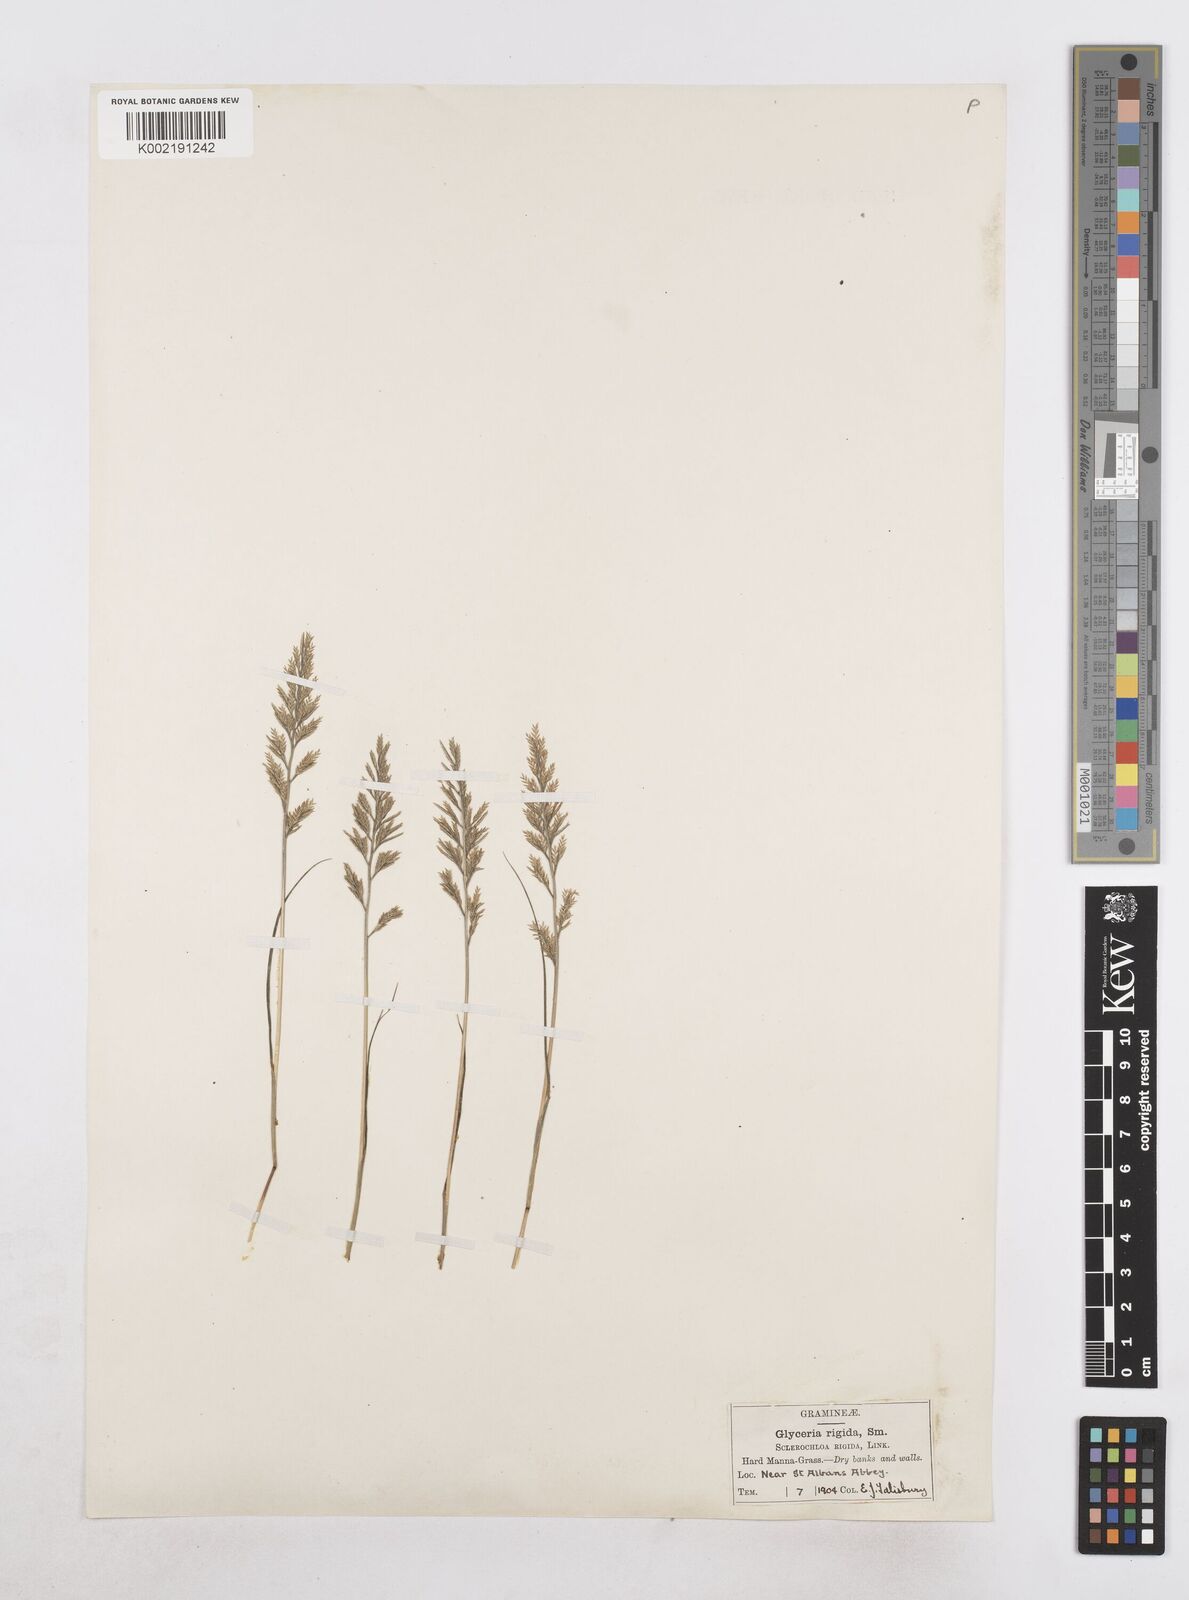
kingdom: Plantae
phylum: Tracheophyta
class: Liliopsida
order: Poales
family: Poaceae
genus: Catapodium
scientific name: Catapodium rigidum
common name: Fern-grass
